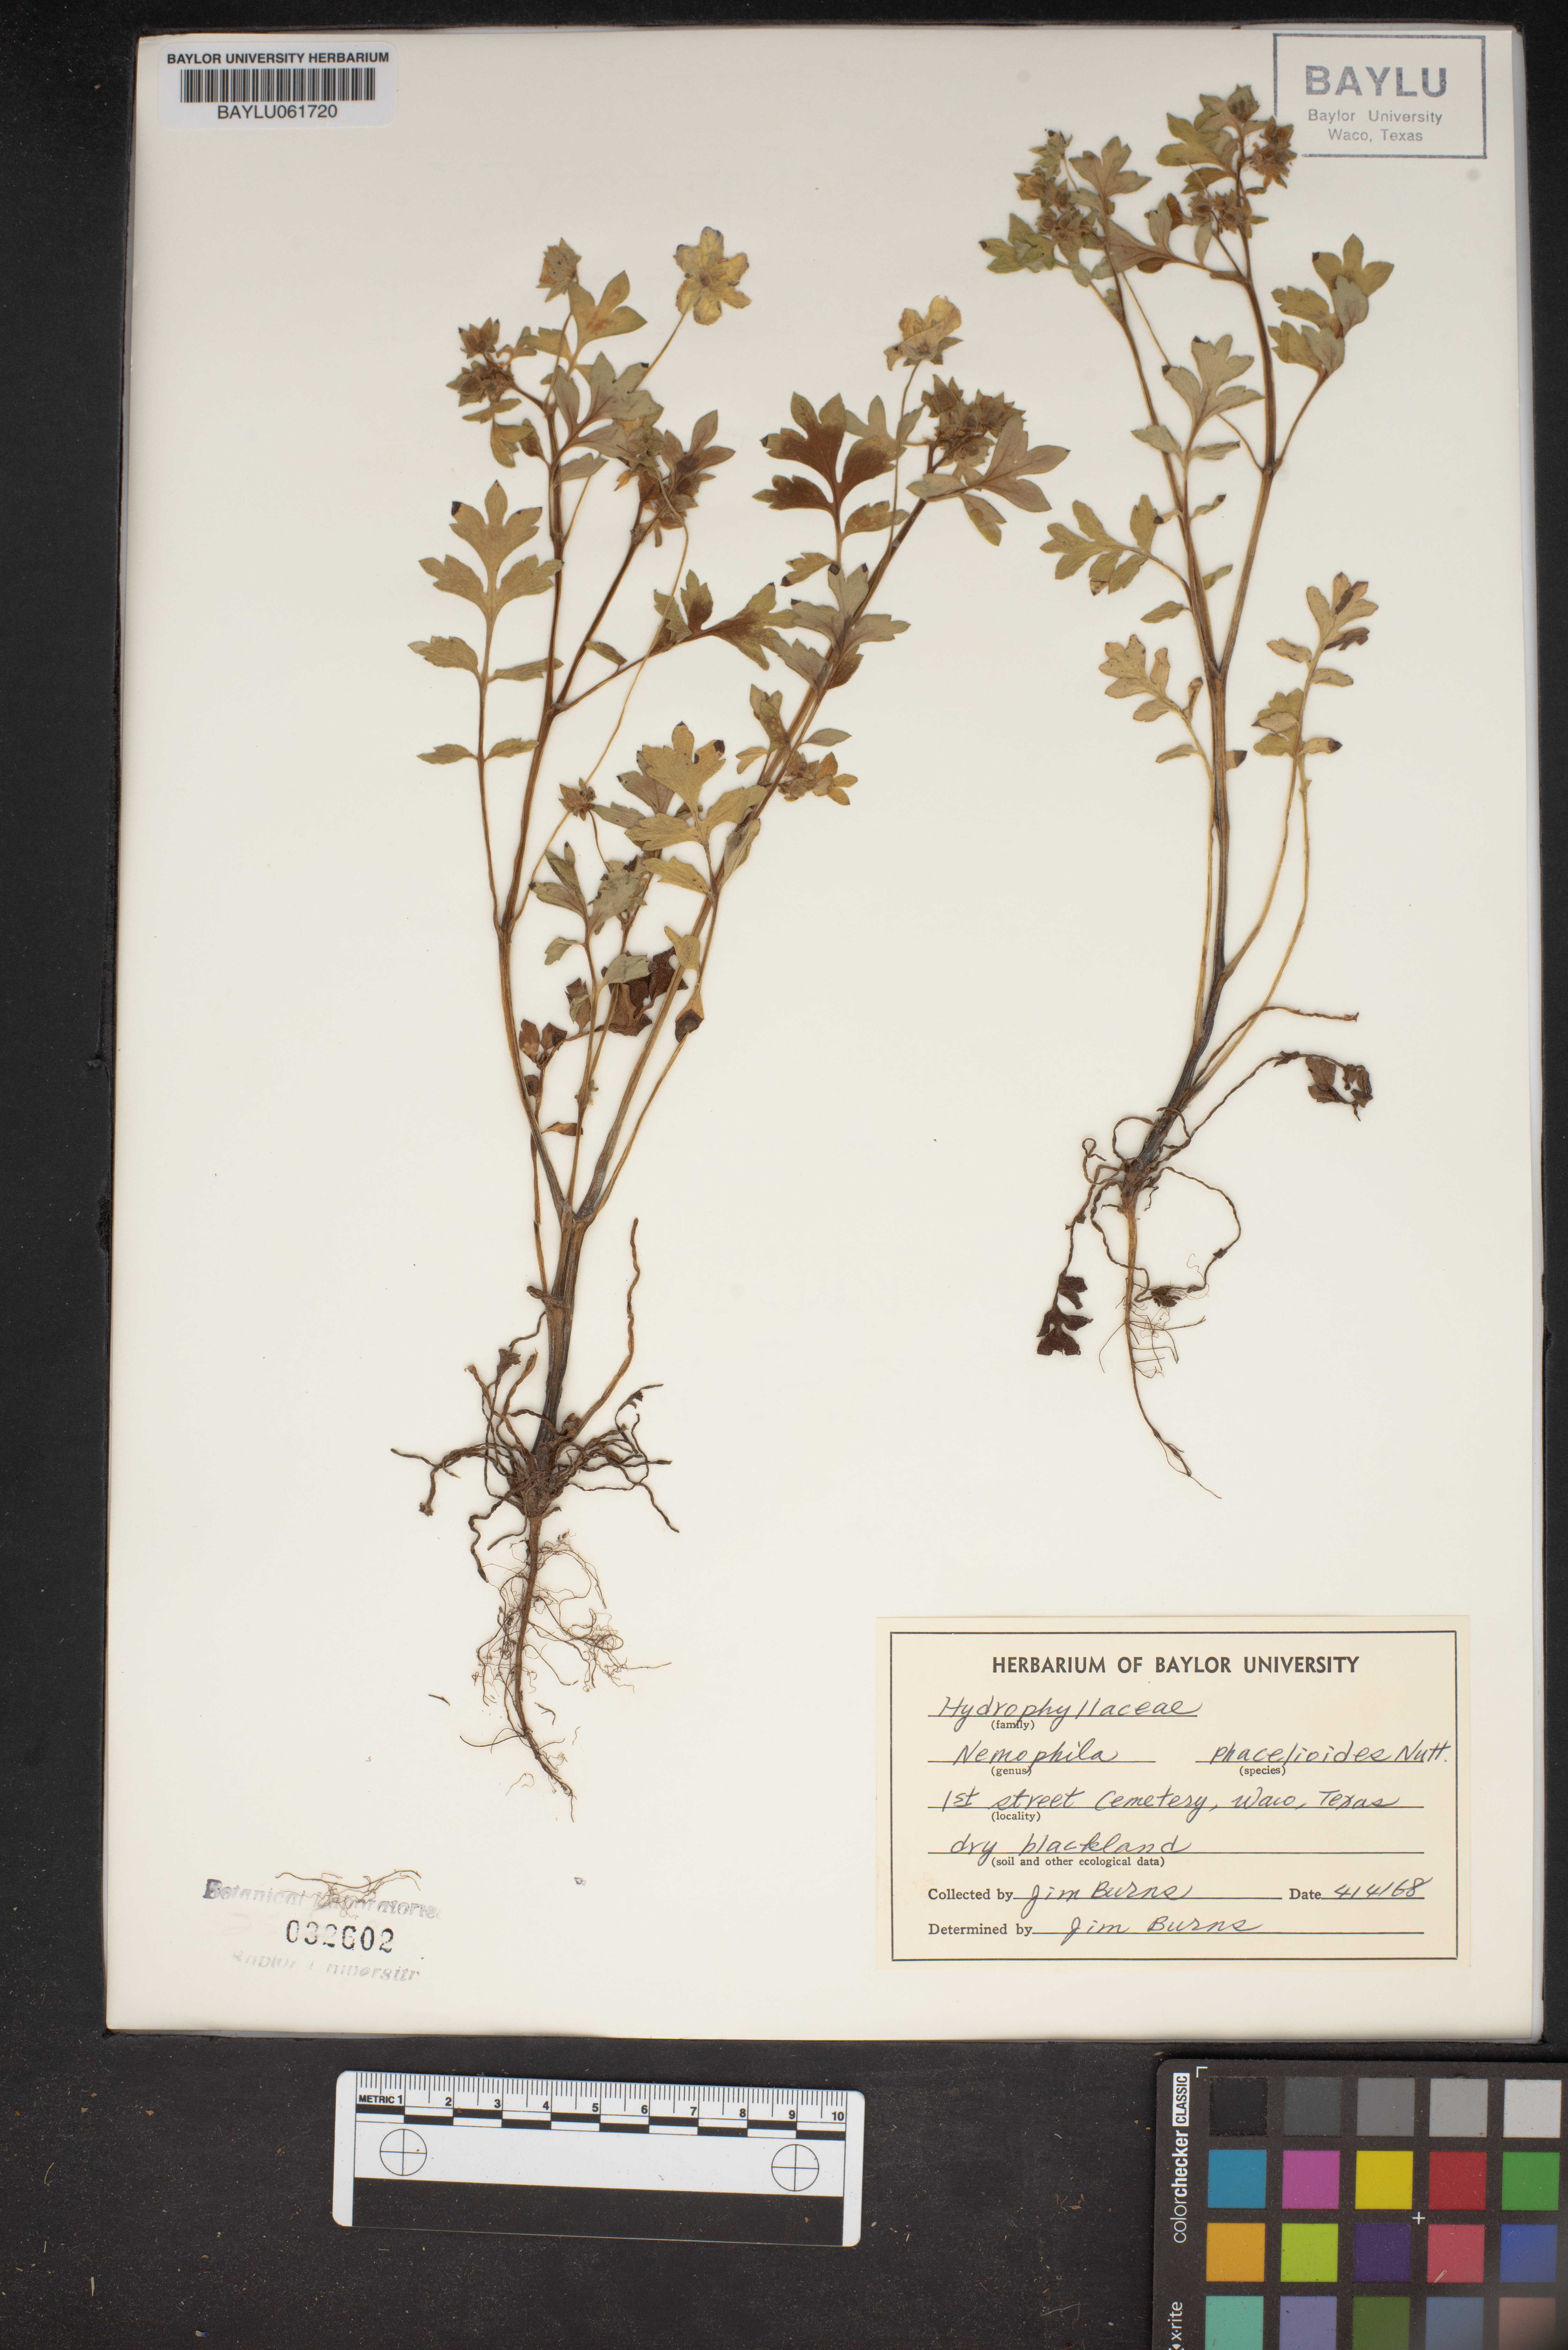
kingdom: Plantae
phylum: Tracheophyta
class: Magnoliopsida
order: Boraginales
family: Hydrophyllaceae
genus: Nemophila
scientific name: Nemophila phacelioides
